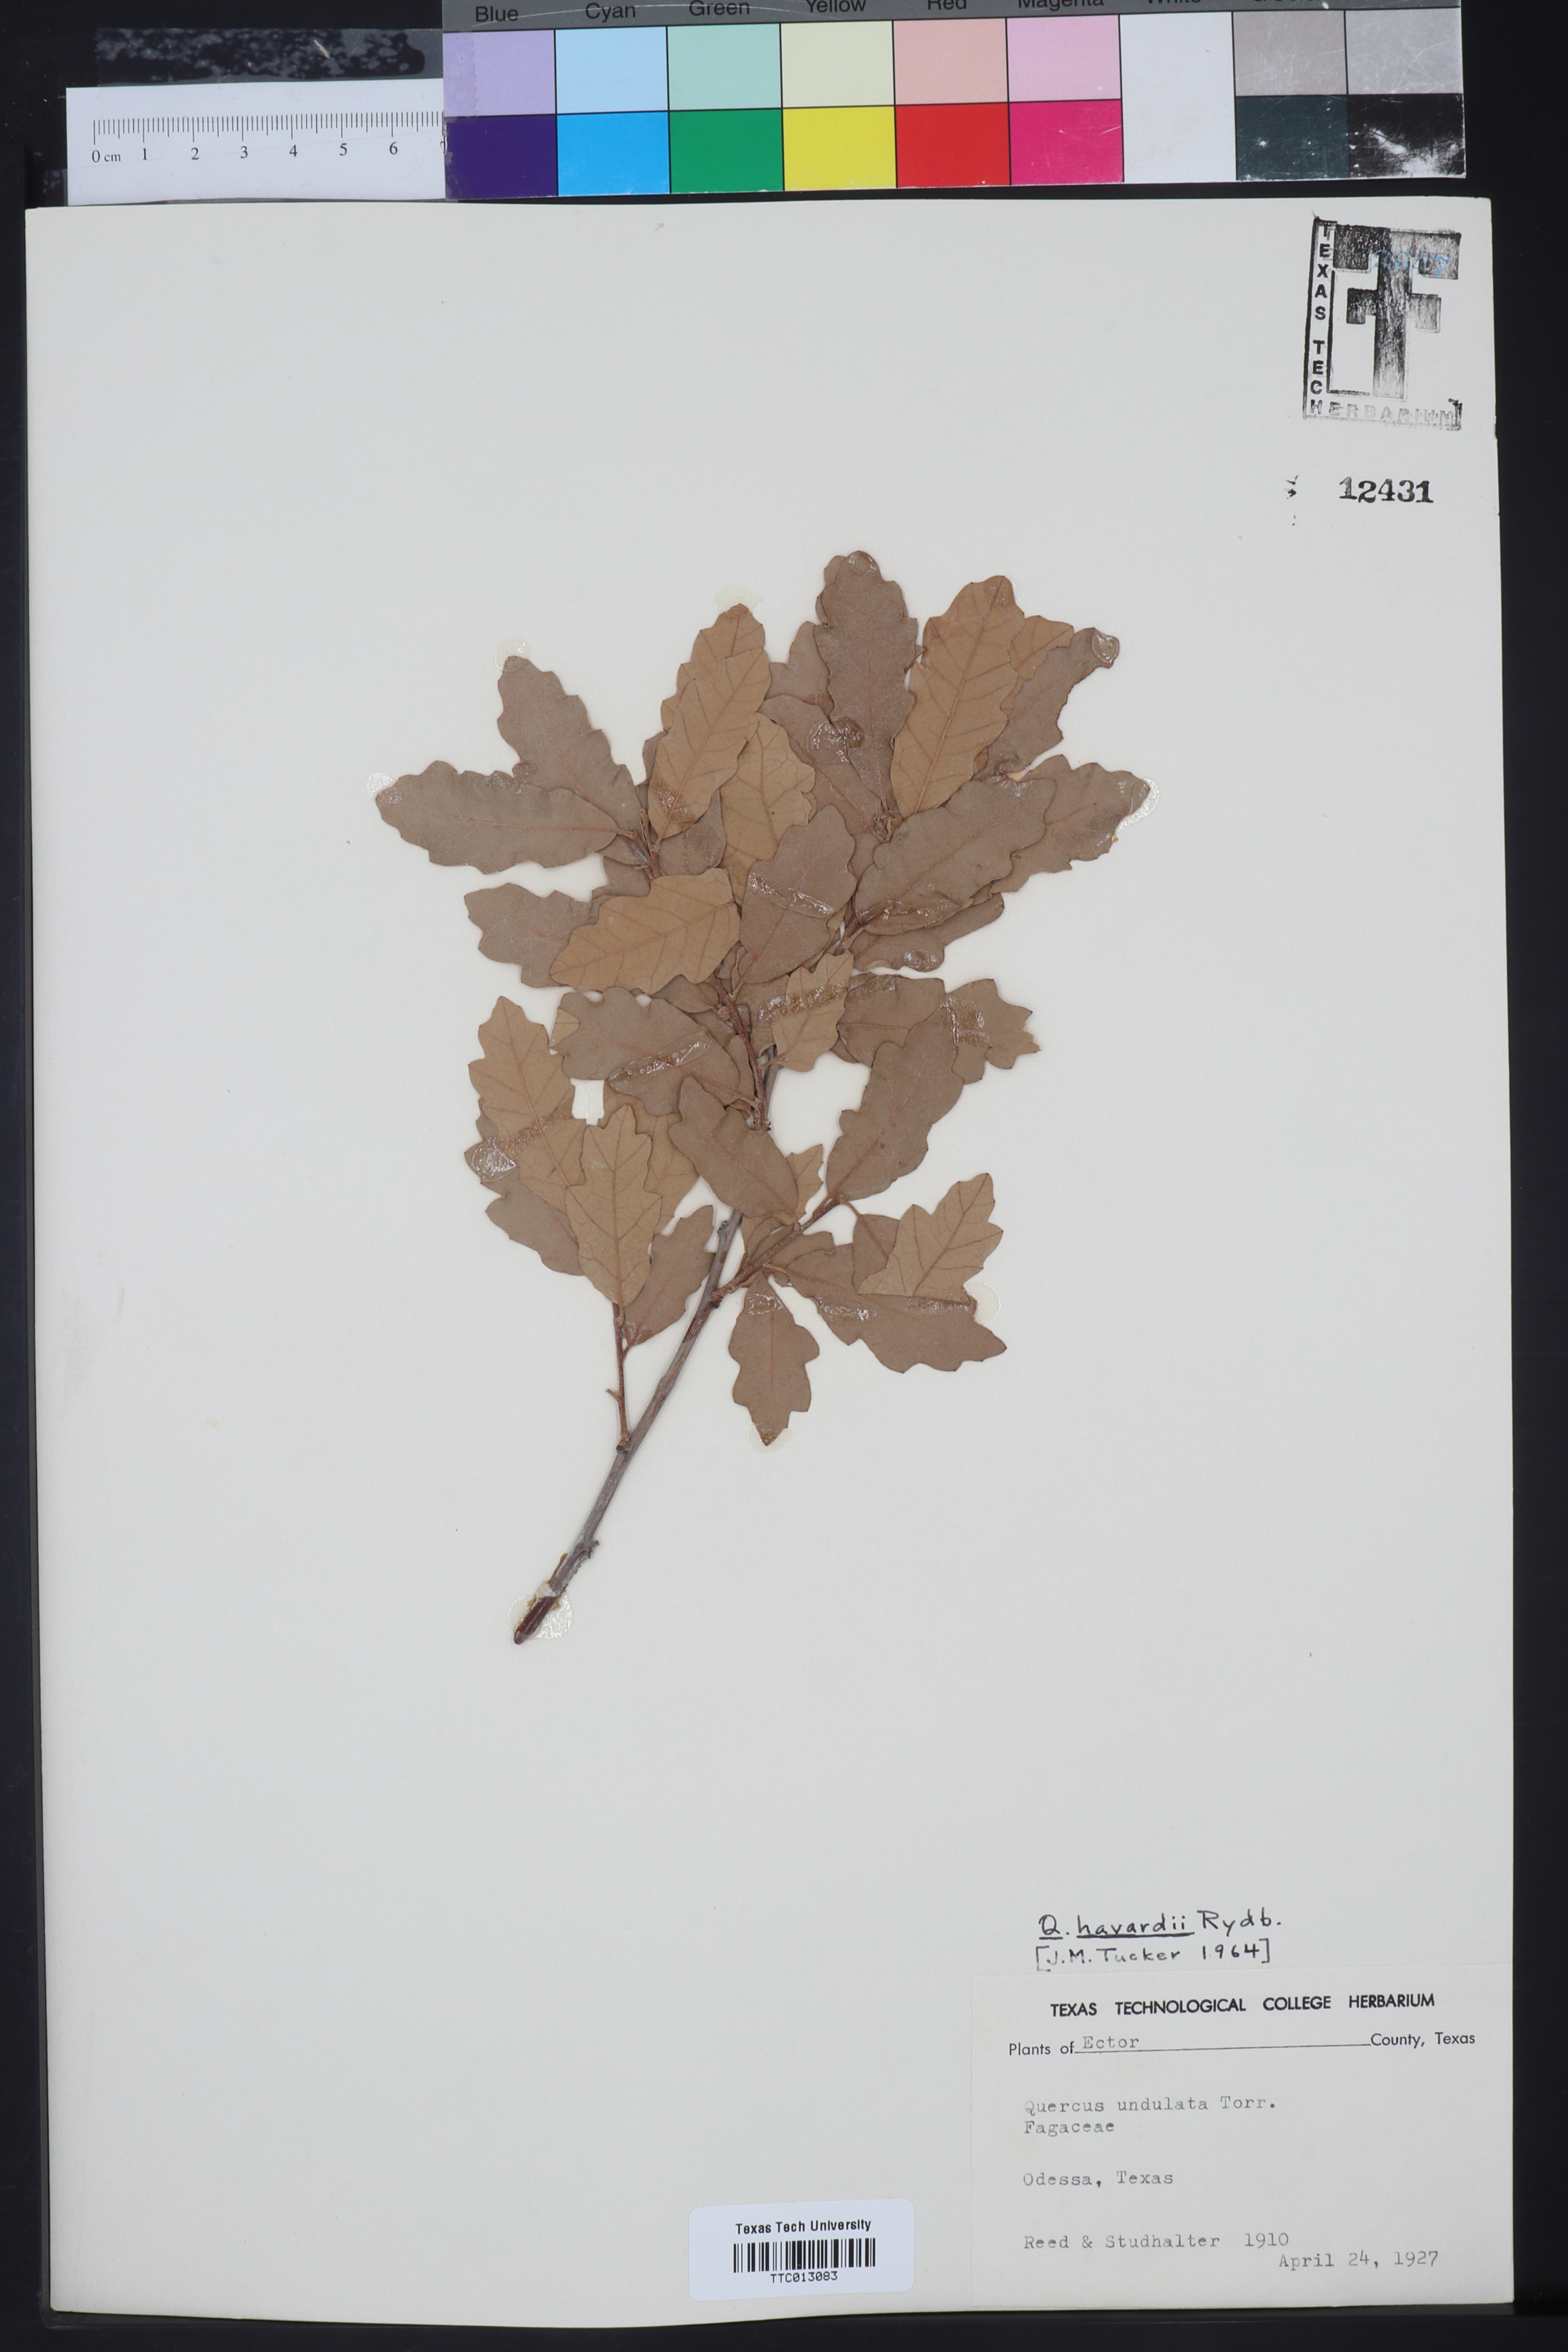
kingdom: Plantae
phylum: Tracheophyta
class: Magnoliopsida
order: Fagales
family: Fagaceae
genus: Quercus
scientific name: Quercus havardii
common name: Shinnery oak
